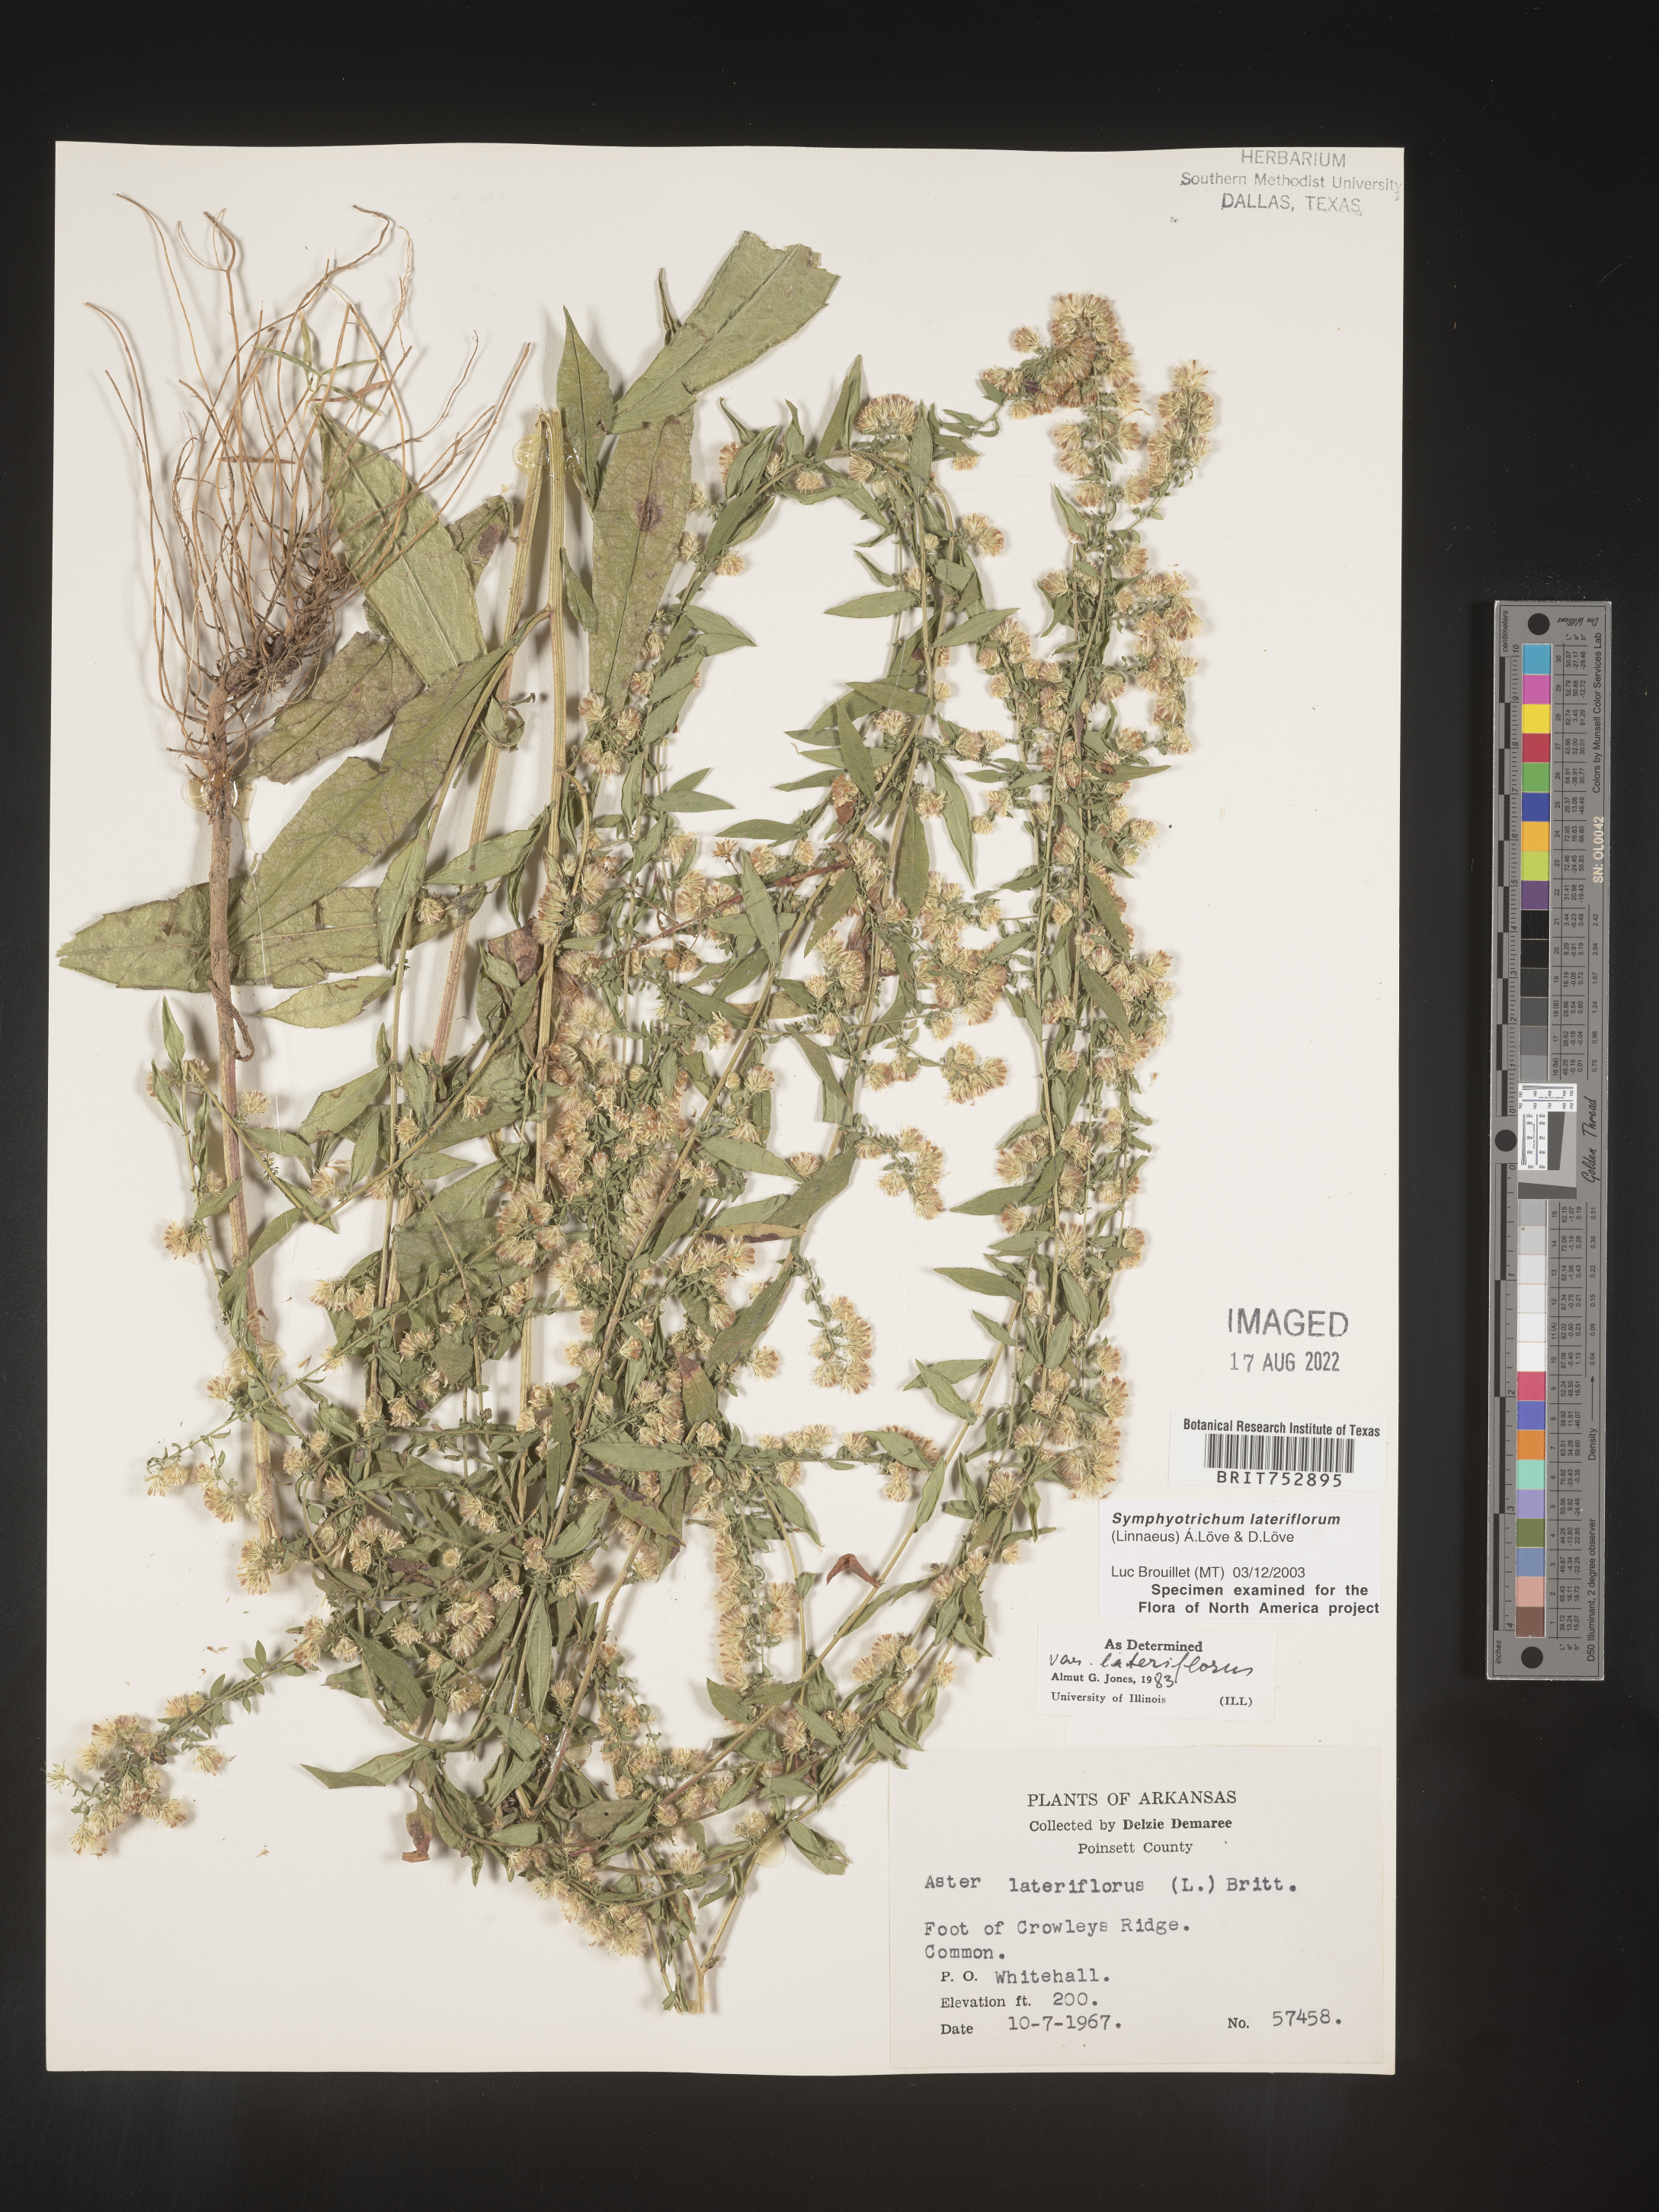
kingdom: Plantae
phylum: Tracheophyta
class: Magnoliopsida
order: Asterales
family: Asteraceae
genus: Symphyotrichum
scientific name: Symphyotrichum lateriflorum
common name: Calico aster
